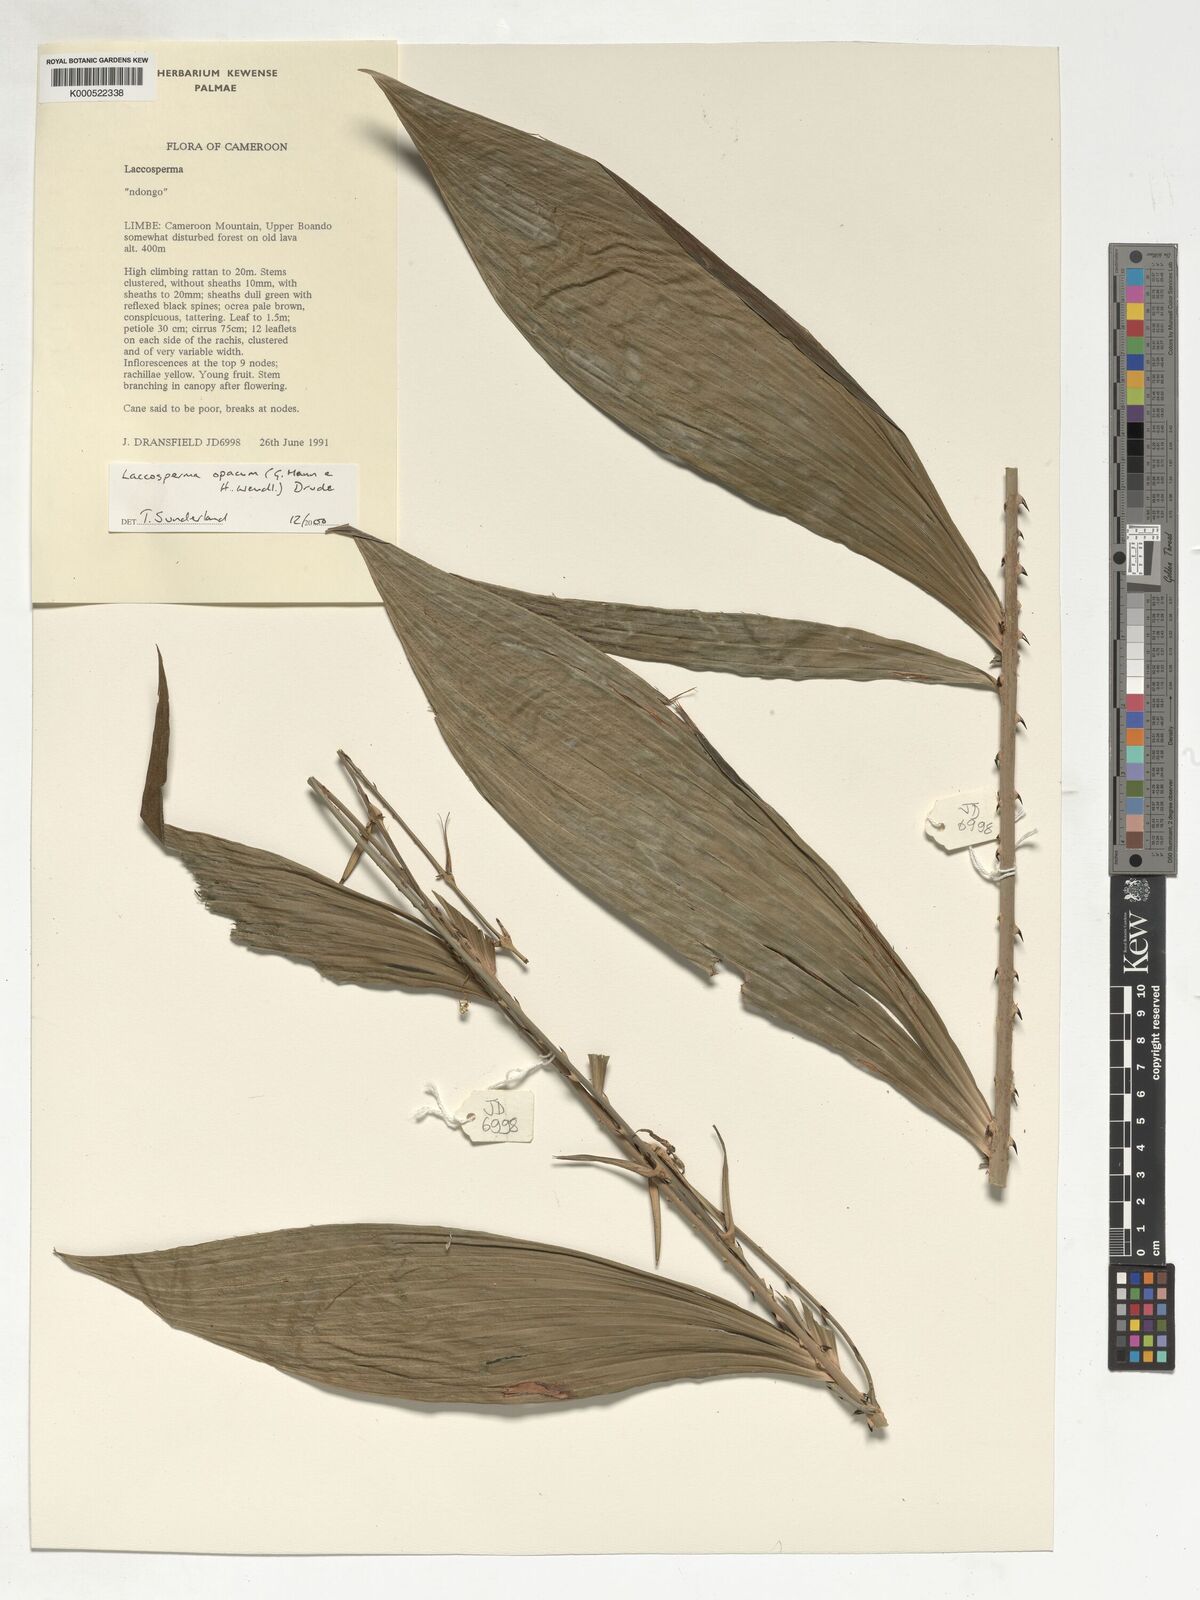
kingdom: Plantae
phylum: Tracheophyta
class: Liliopsida
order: Arecales
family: Arecaceae
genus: Laccosperma
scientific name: Laccosperma opacum
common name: Rattan
